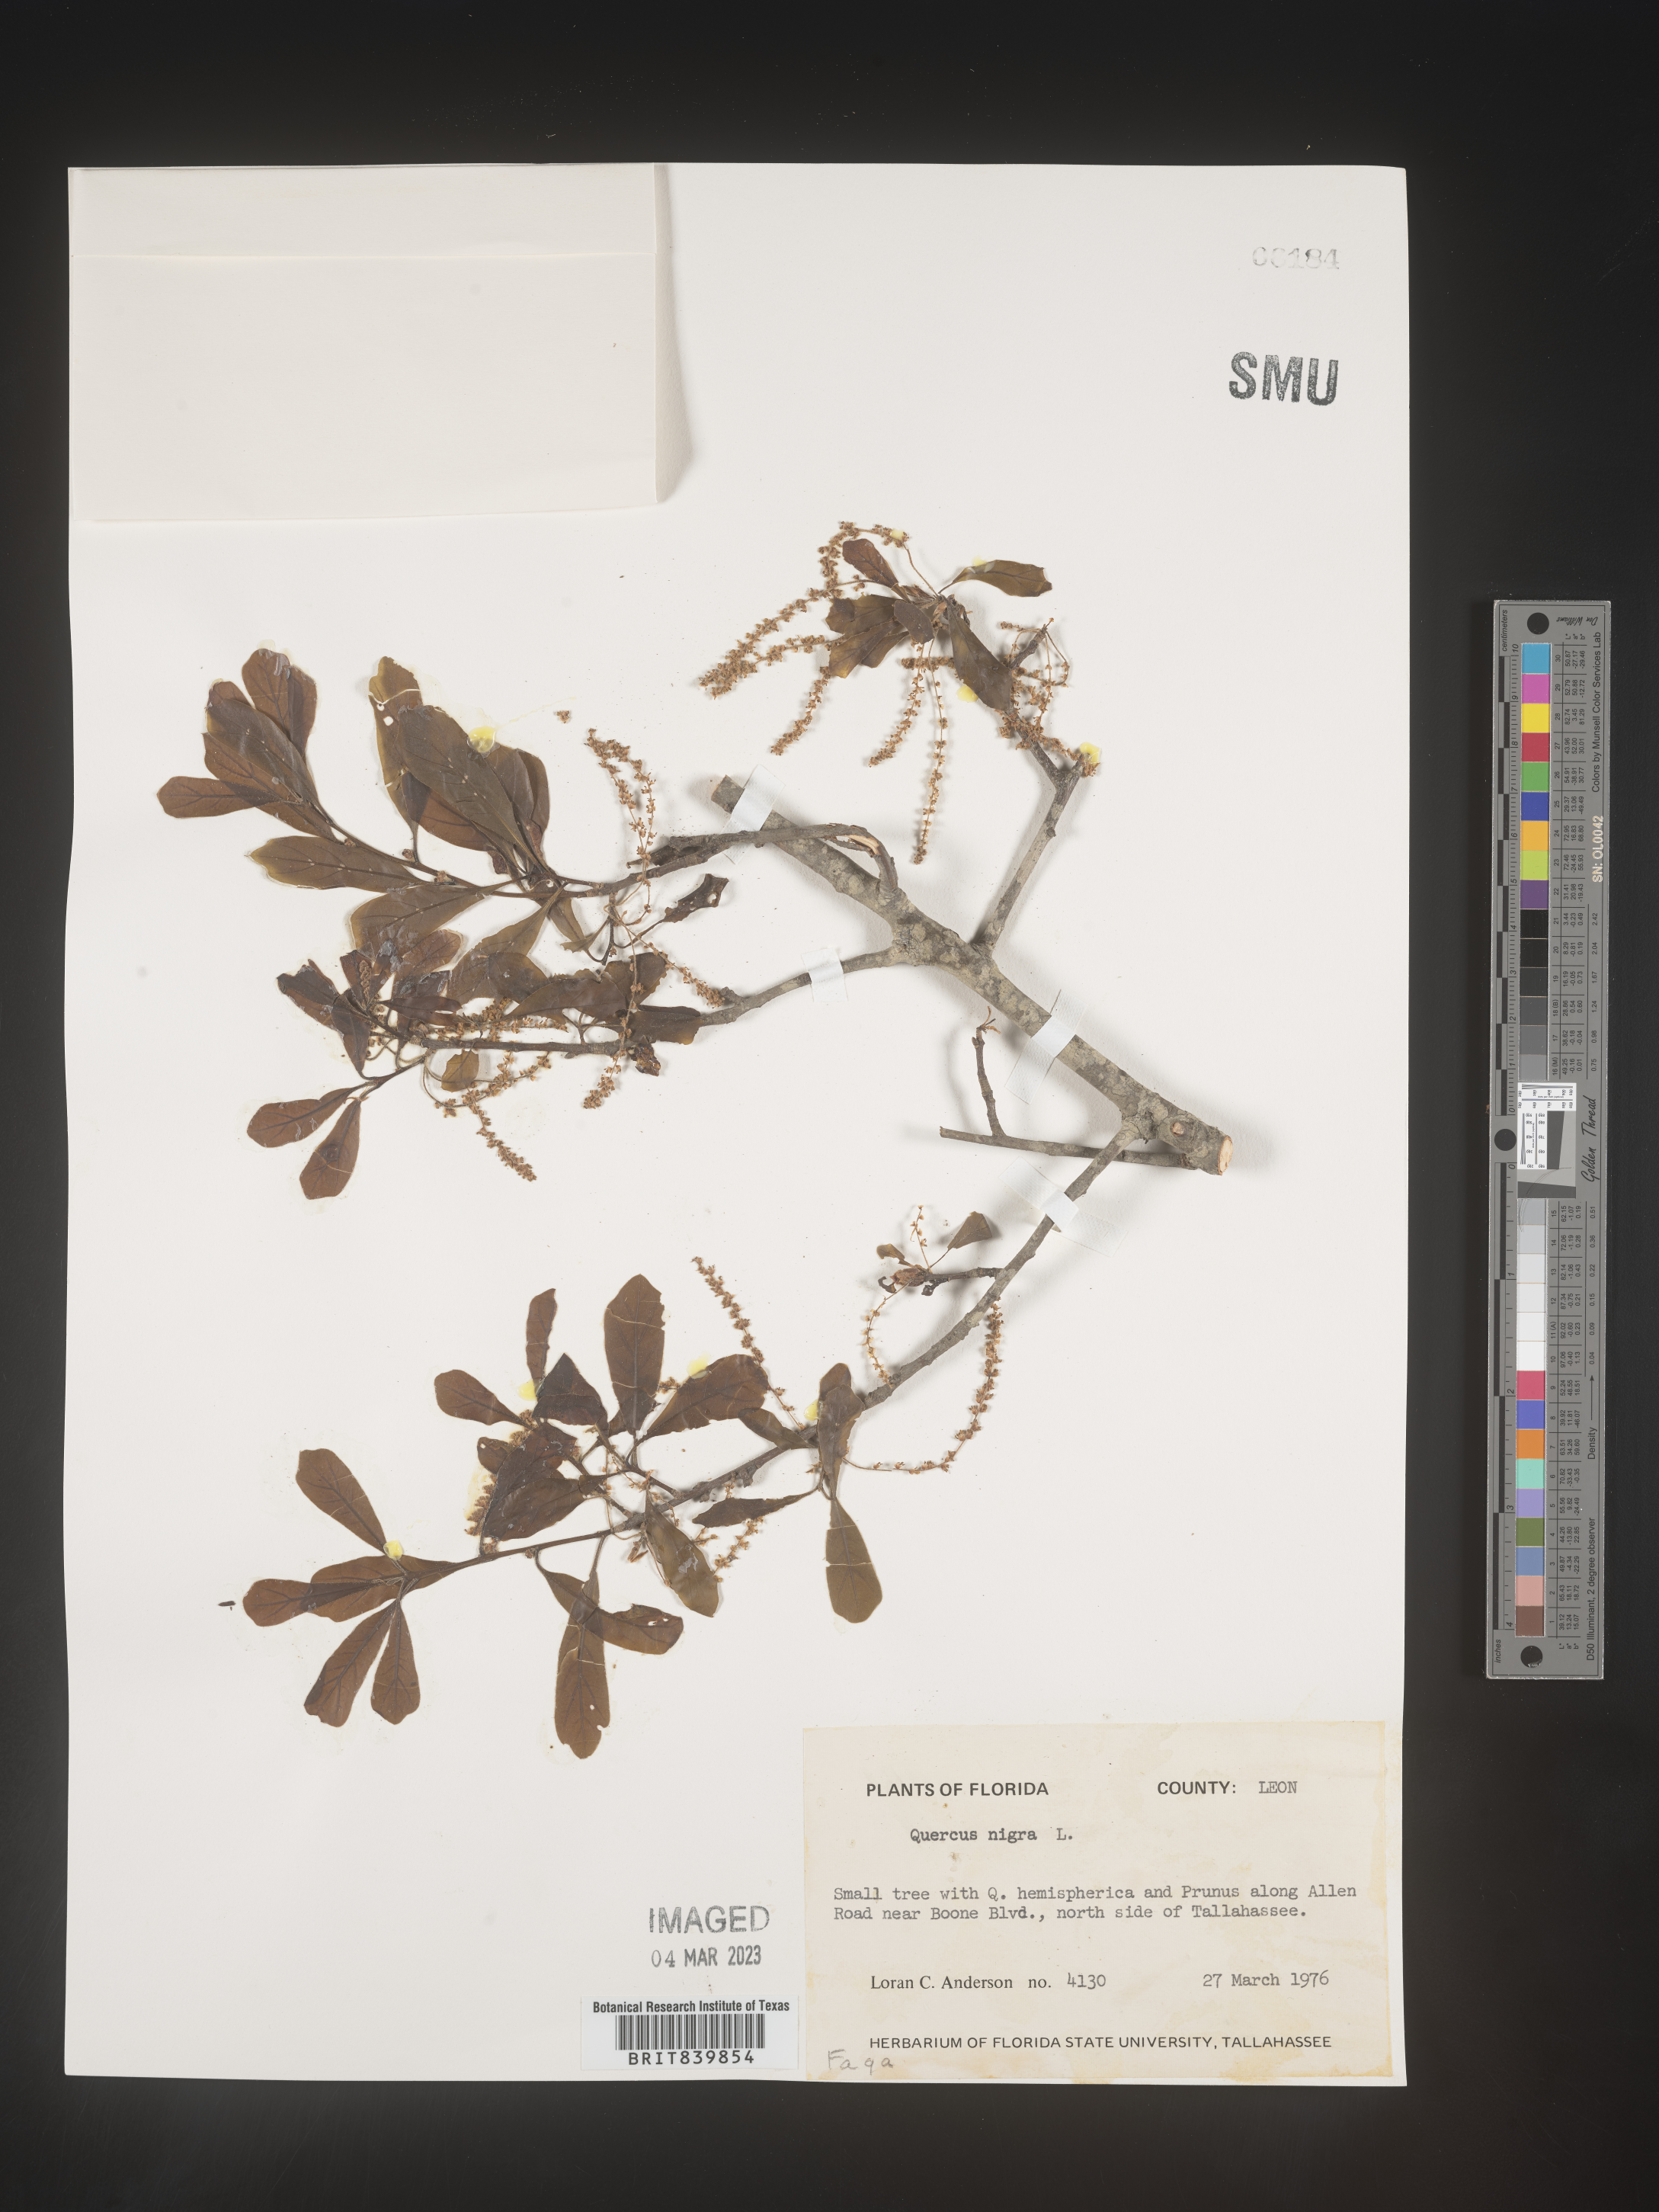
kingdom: Plantae
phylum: Tracheophyta
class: Magnoliopsida
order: Fagales
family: Fagaceae
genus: Quercus
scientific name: Quercus nigra
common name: Water oak
